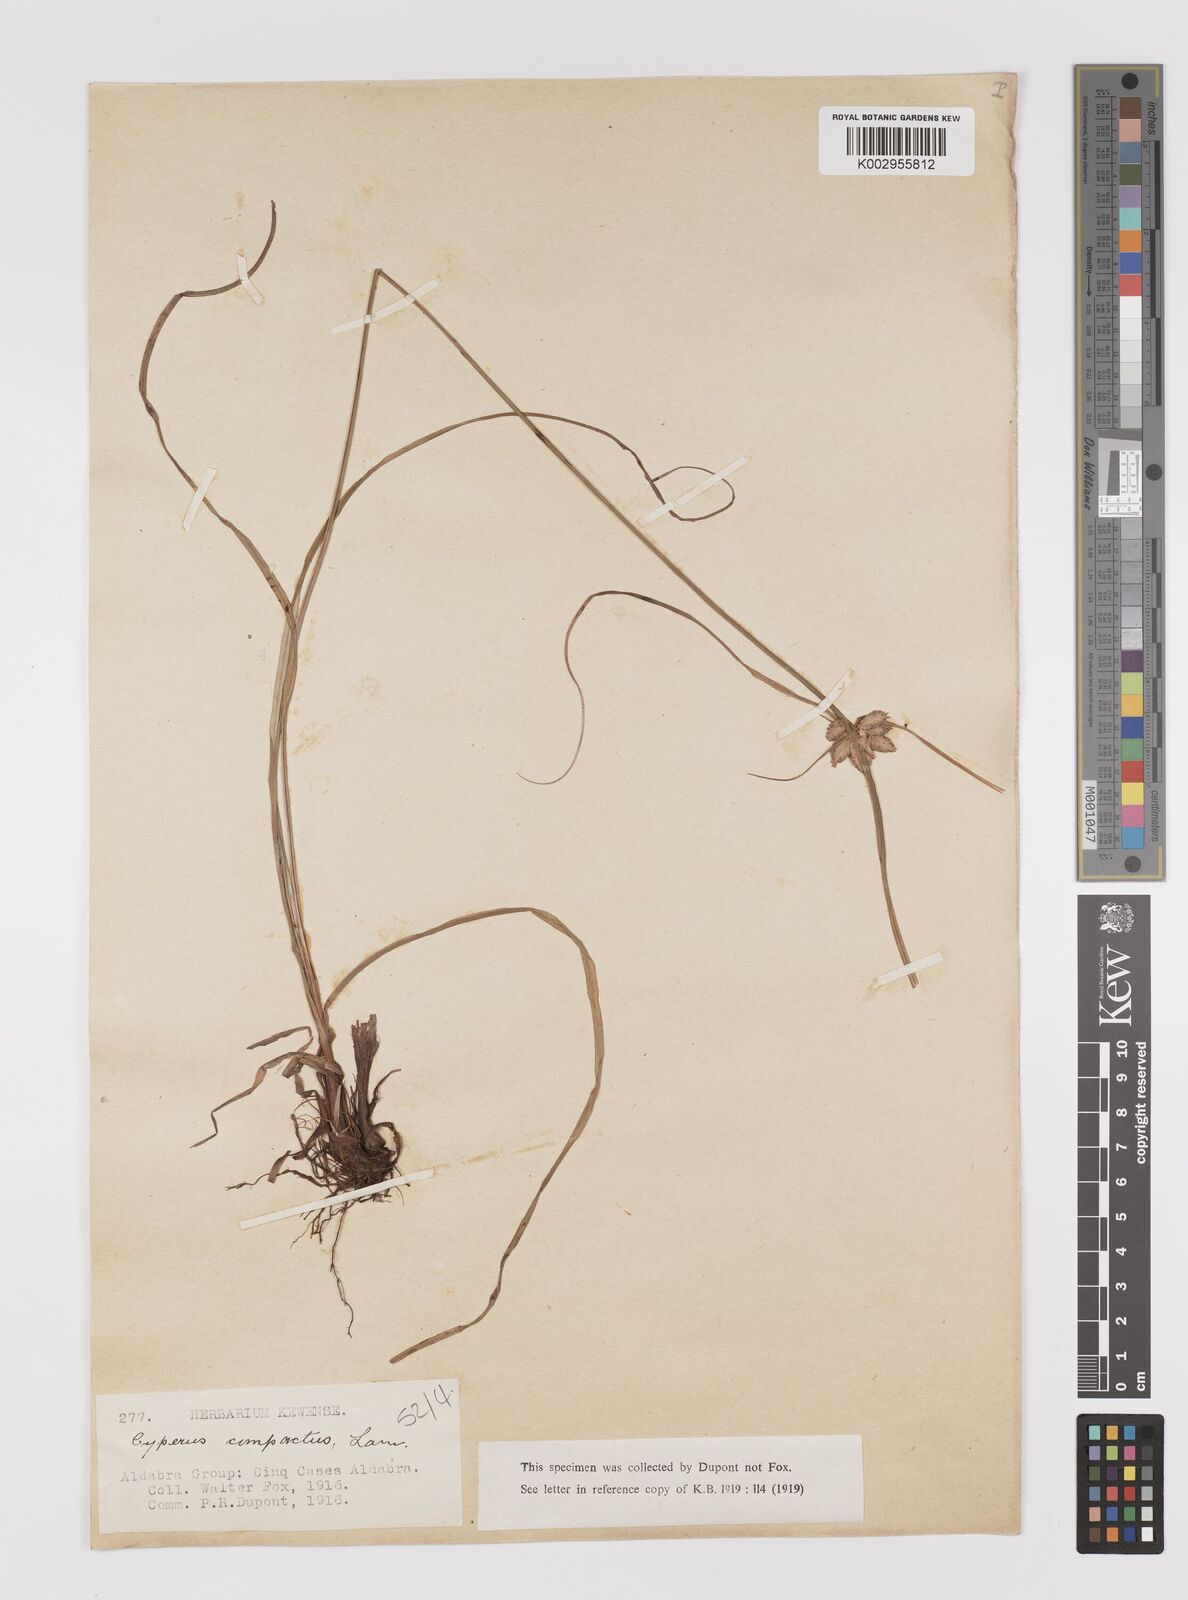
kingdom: Plantae
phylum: Tracheophyta
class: Liliopsida
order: Poales
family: Cyperaceae
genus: Cyperus
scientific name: Cyperus niveus
